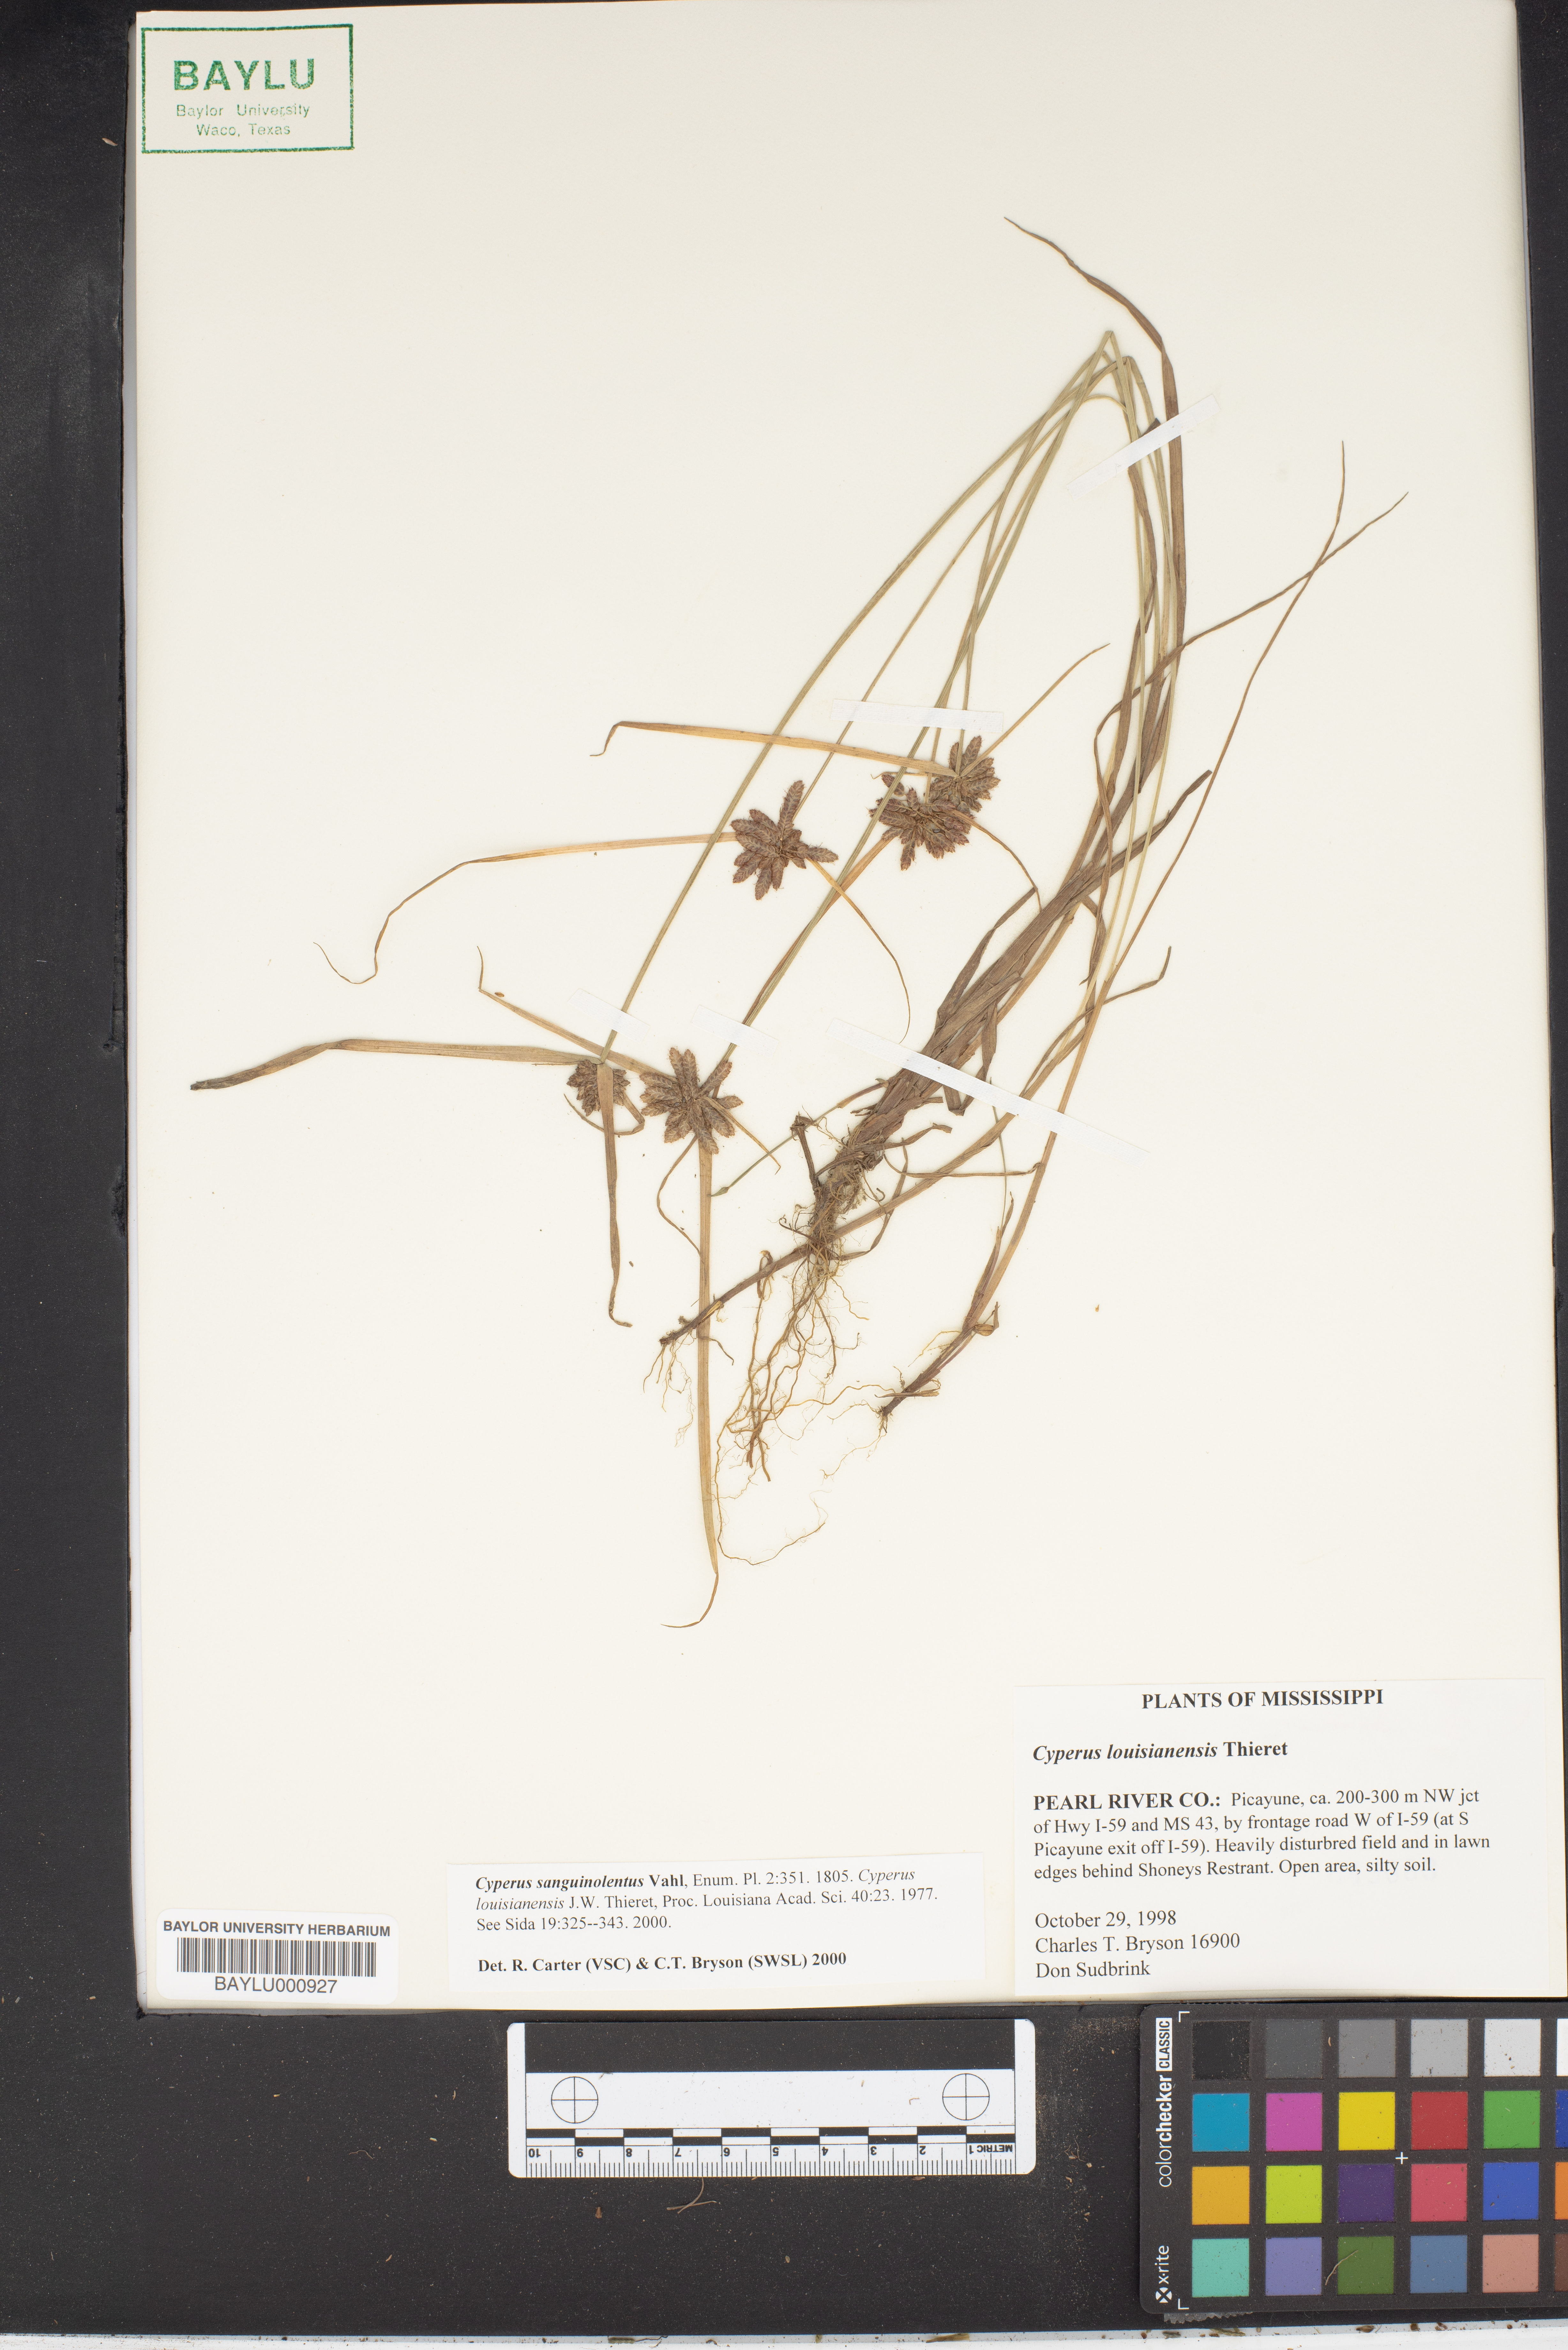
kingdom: Plantae
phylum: Tracheophyta
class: Liliopsida
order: Poales
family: Cyperaceae
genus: Cyperus
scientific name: Cyperus sanguinolentus
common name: Purpleglume flatsedge
